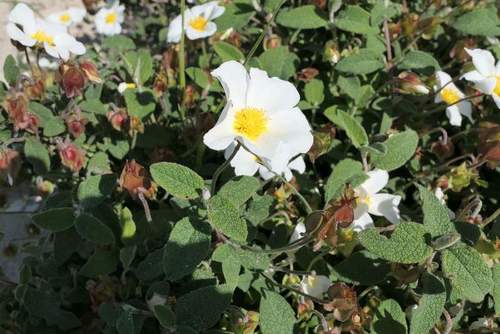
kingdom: Plantae
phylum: Tracheophyta
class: Magnoliopsida
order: Malvales
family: Cistaceae
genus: Cistus
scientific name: Cistus salviifolius
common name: Salvia cistus
